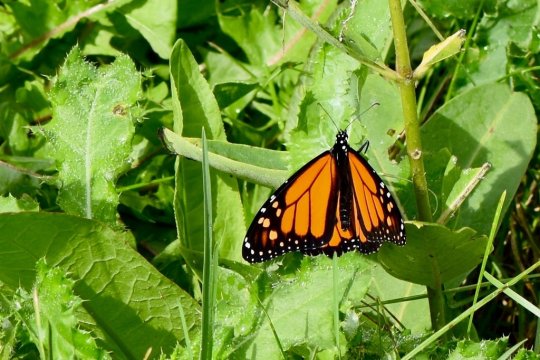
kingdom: Animalia
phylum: Arthropoda
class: Insecta
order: Lepidoptera
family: Nymphalidae
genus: Danaus
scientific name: Danaus plexippus
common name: Monarch
